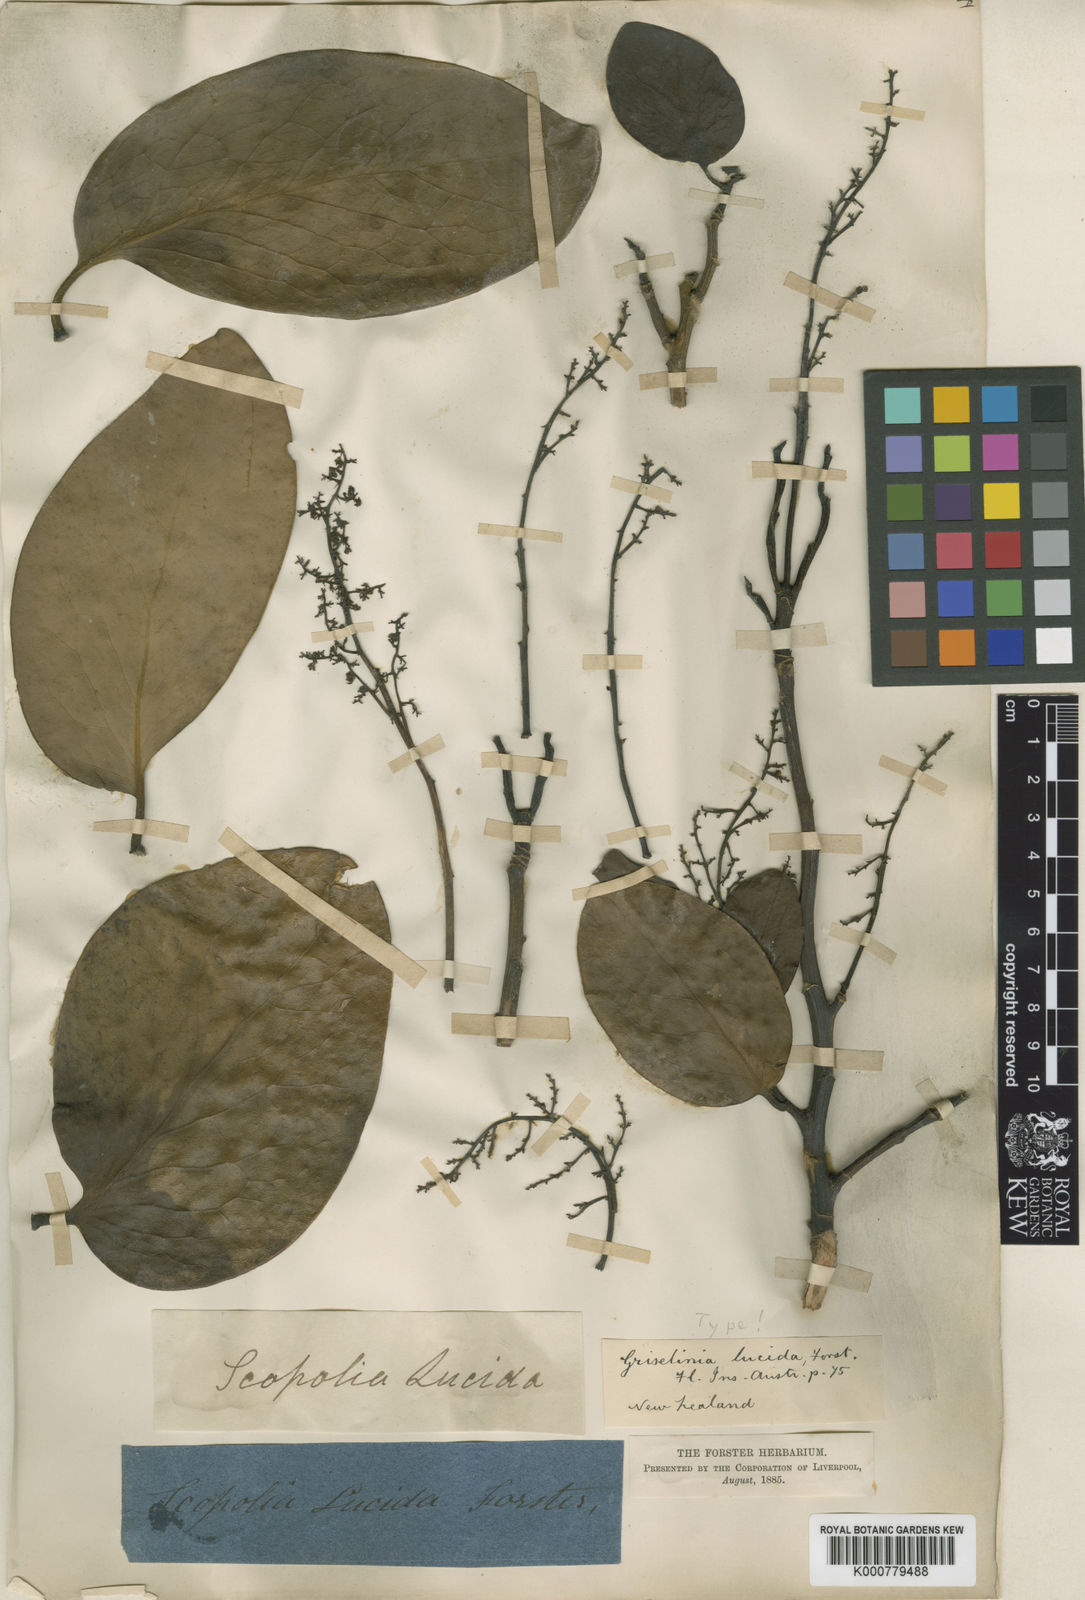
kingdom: Plantae
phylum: Tracheophyta
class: Magnoliopsida
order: Apiales
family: Griseliniaceae
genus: Griselinia
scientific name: Griselinia lucida
